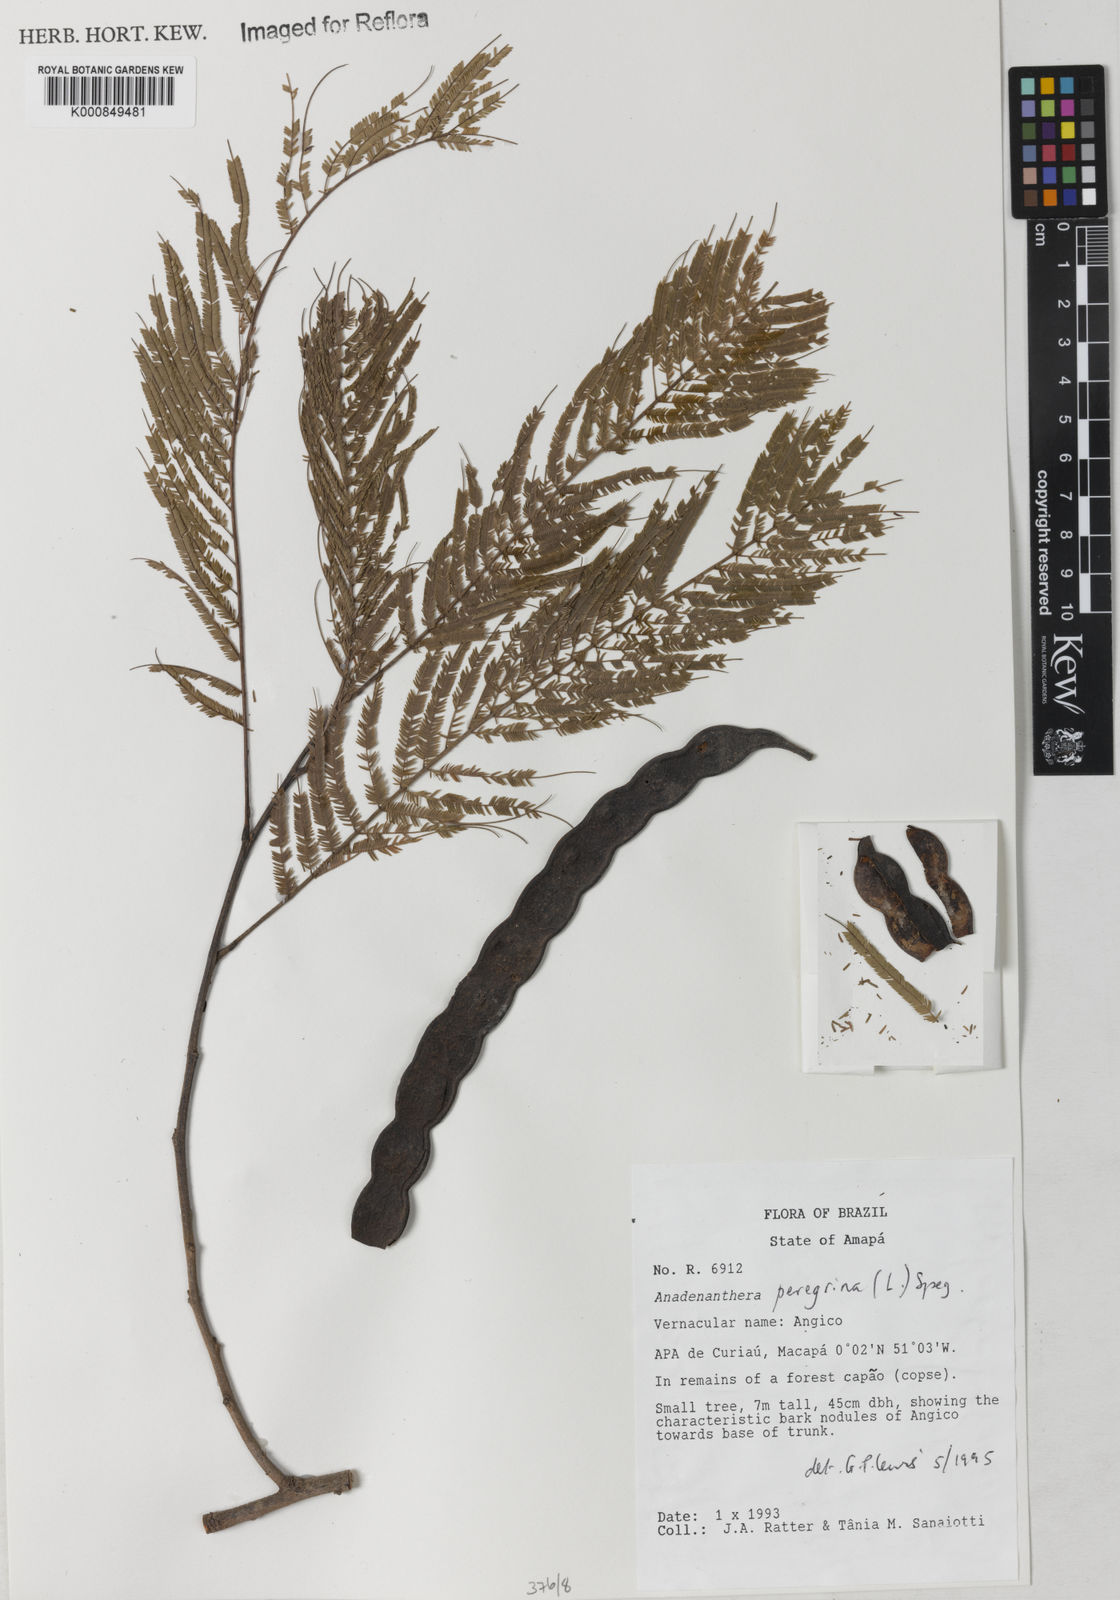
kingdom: Plantae
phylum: Tracheophyta
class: Magnoliopsida
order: Fabales
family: Fabaceae
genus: Anadenanthera
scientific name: Anadenanthera peregrina
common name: Cohoba
